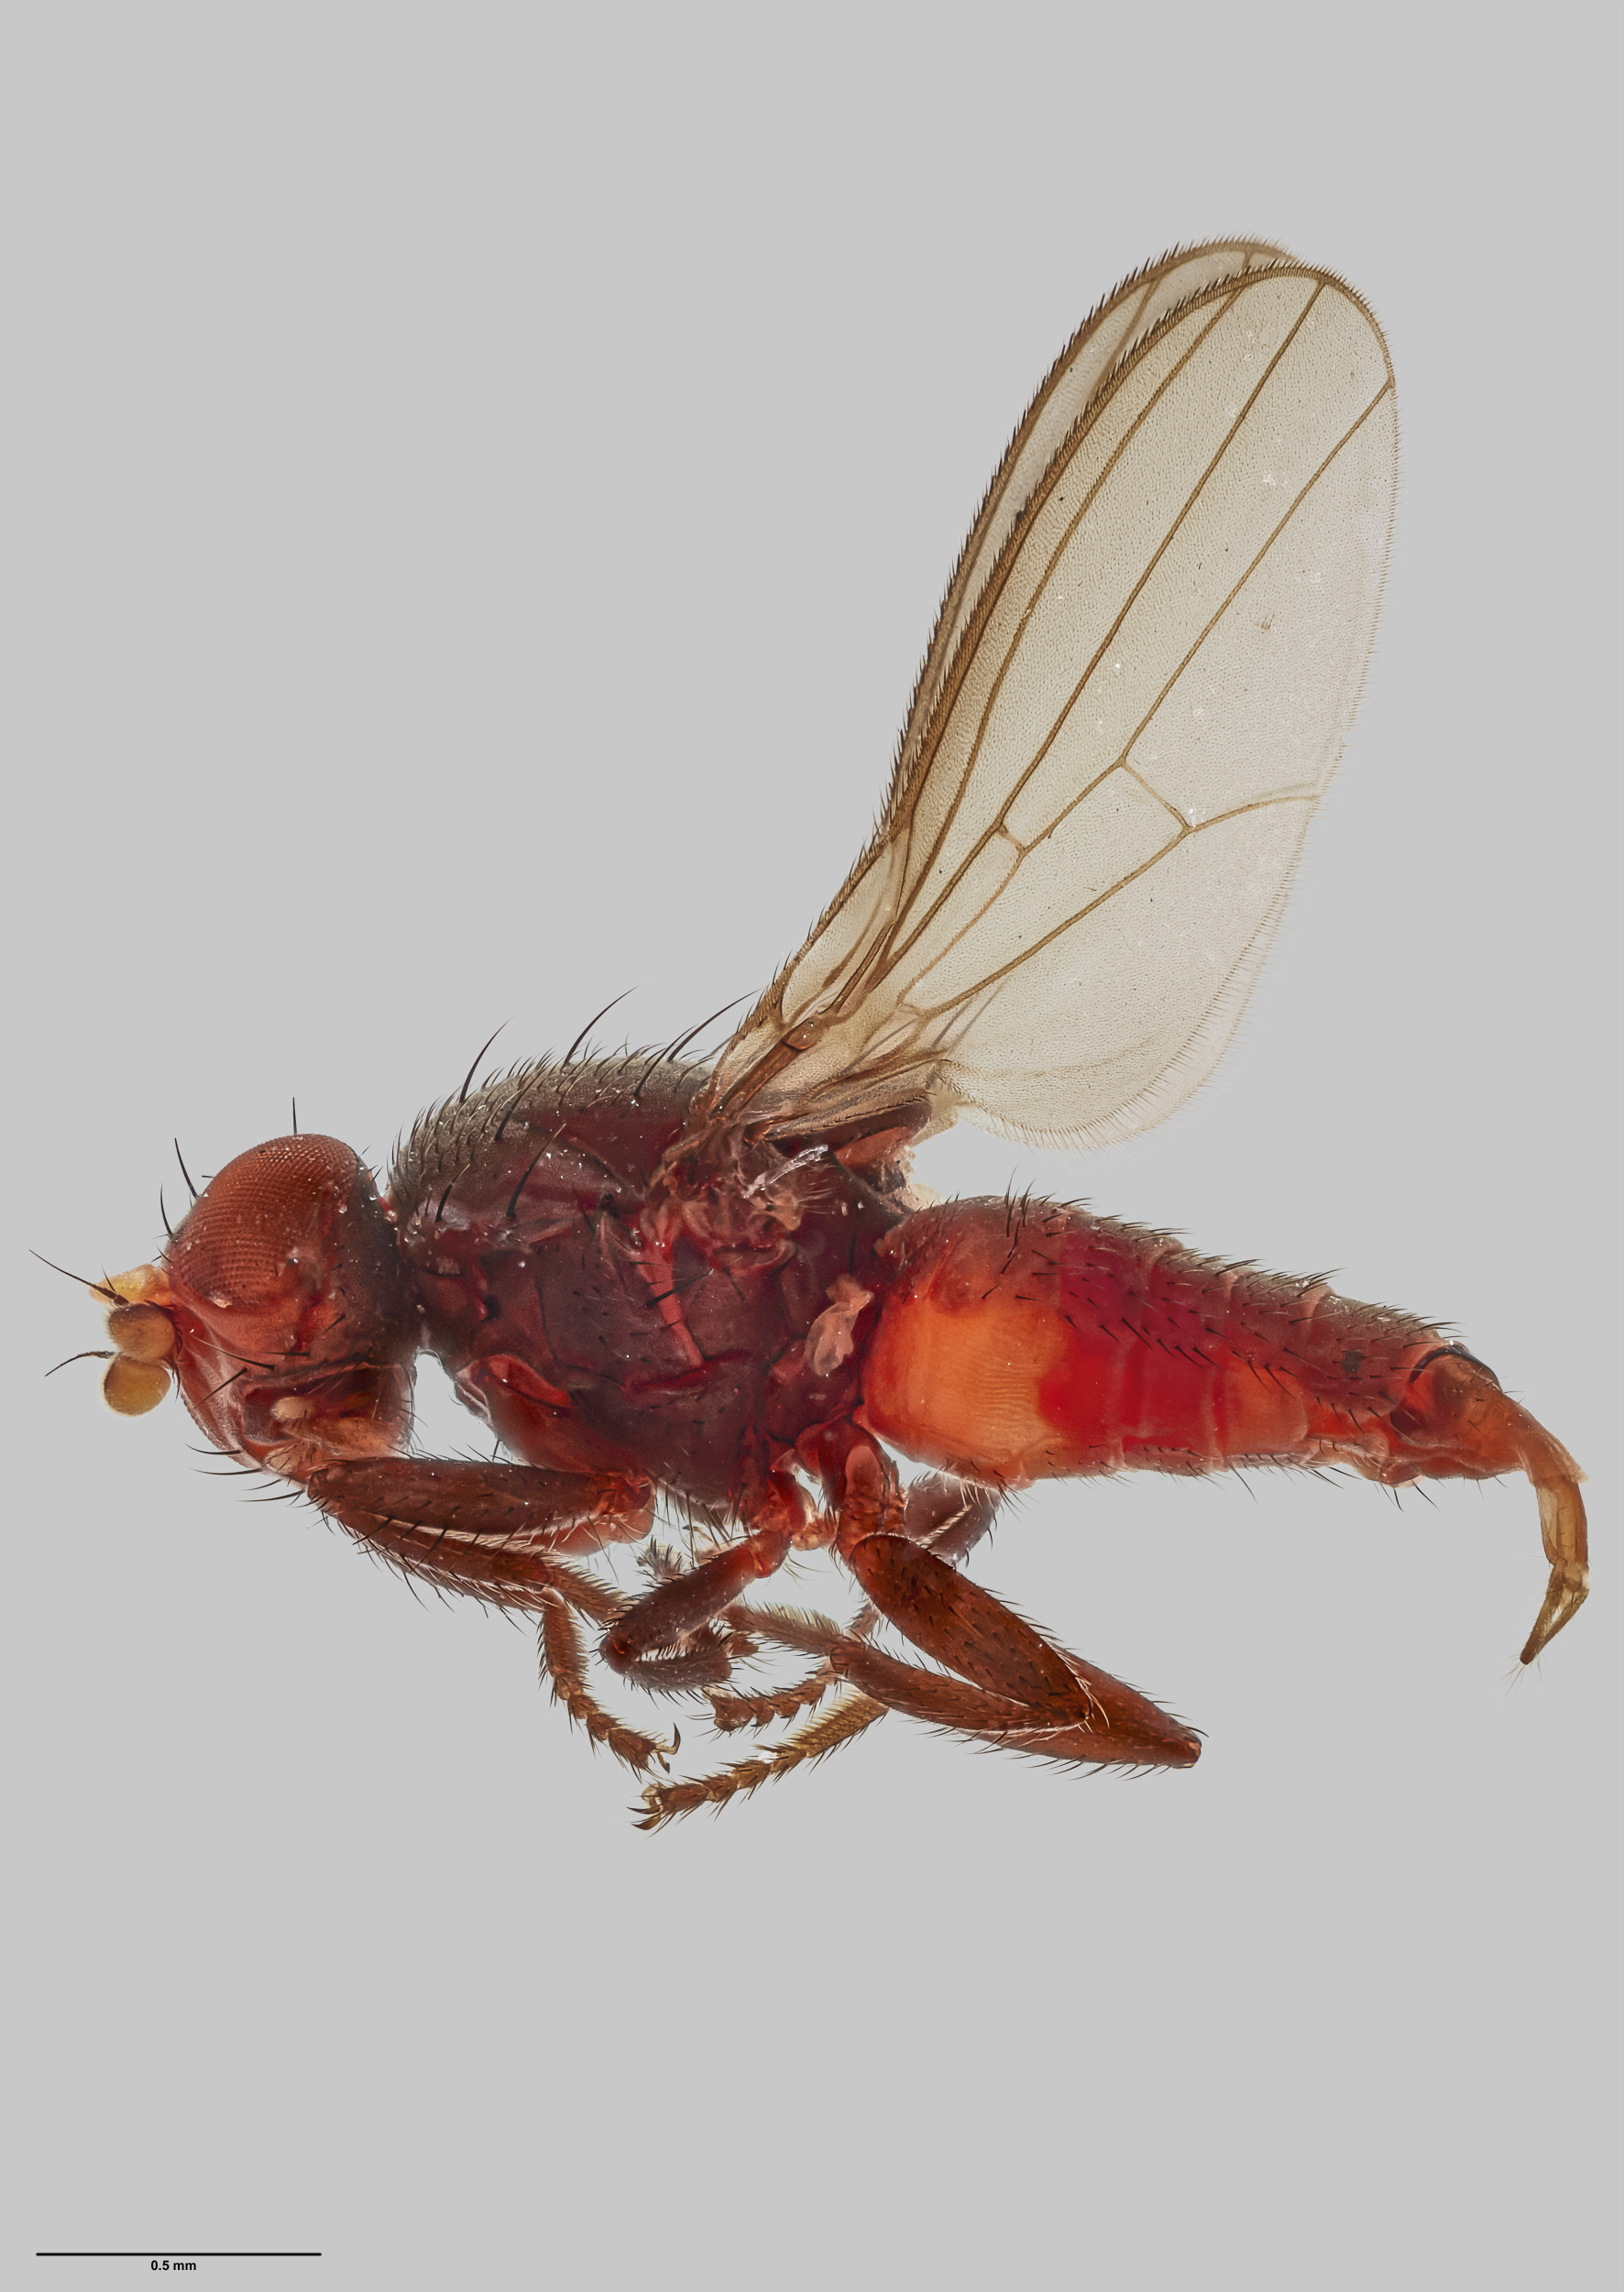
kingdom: Animalia
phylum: Arthropoda
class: Insecta
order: Diptera
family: Canacidae
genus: Zalea
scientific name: Zalea earlyi
